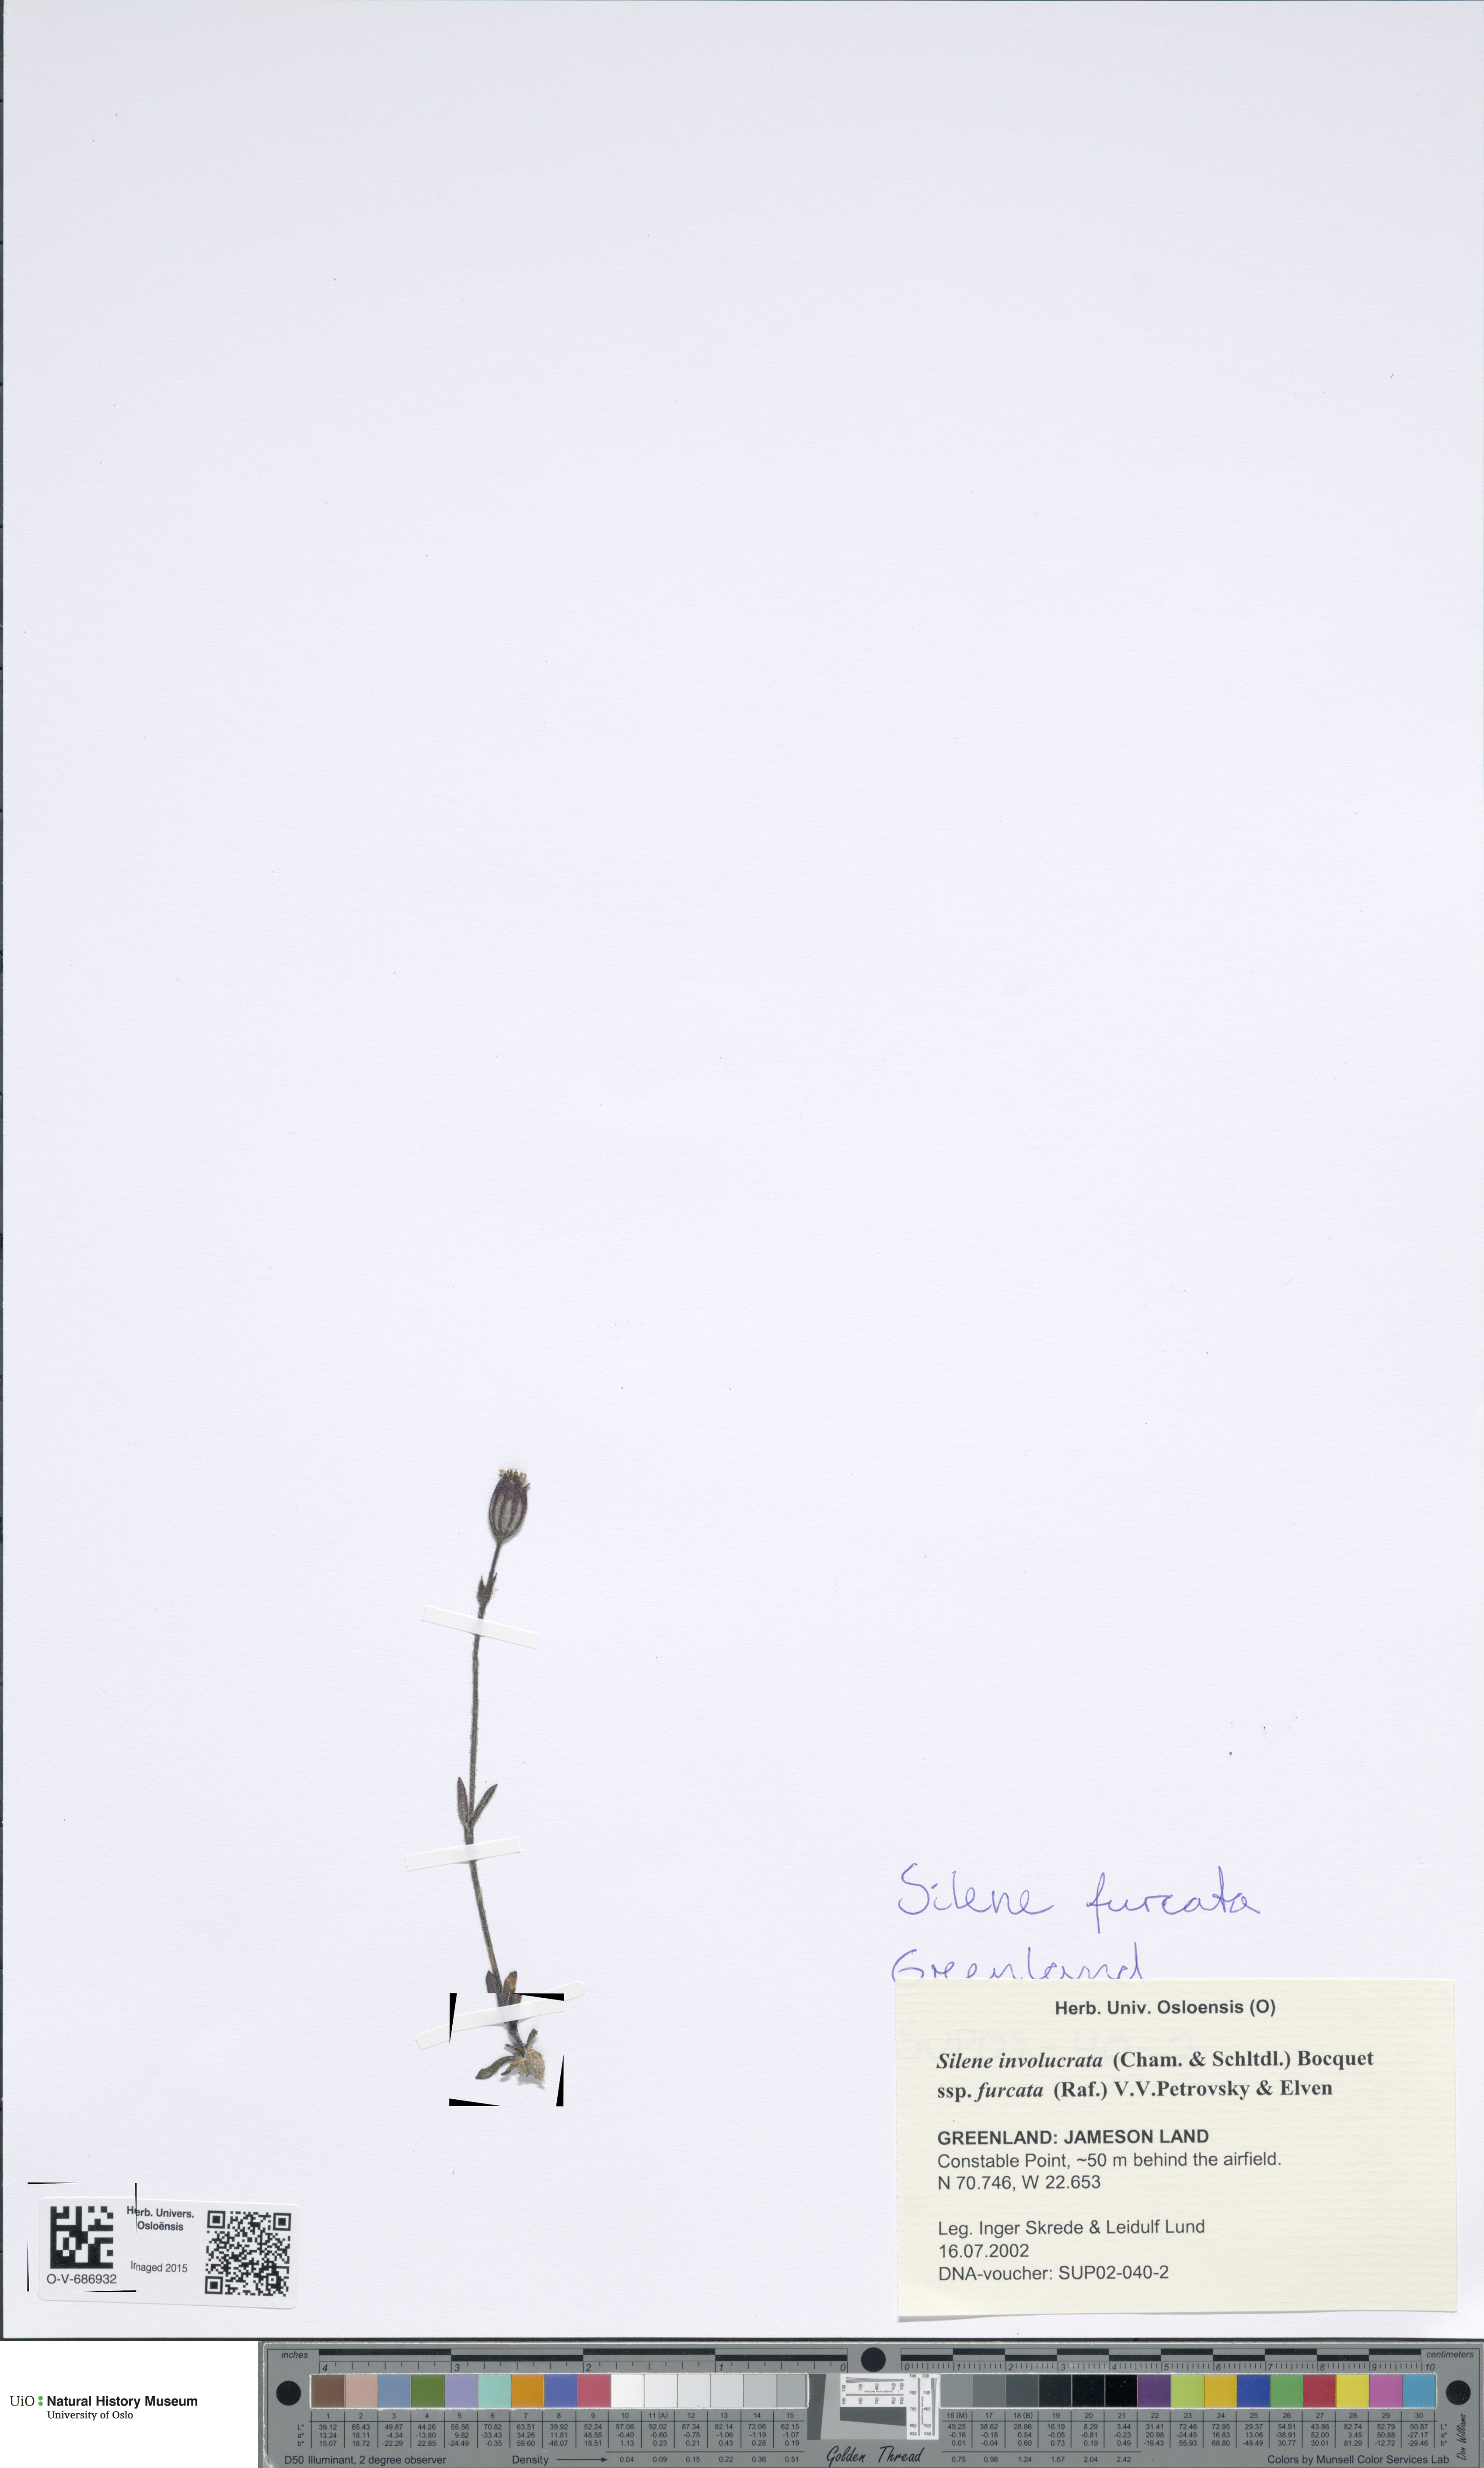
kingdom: Plantae
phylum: Tracheophyta
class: Magnoliopsida
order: Caryophyllales
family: Caryophyllaceae
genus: Silene
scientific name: Silene involucrata
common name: Greater arctic campion
